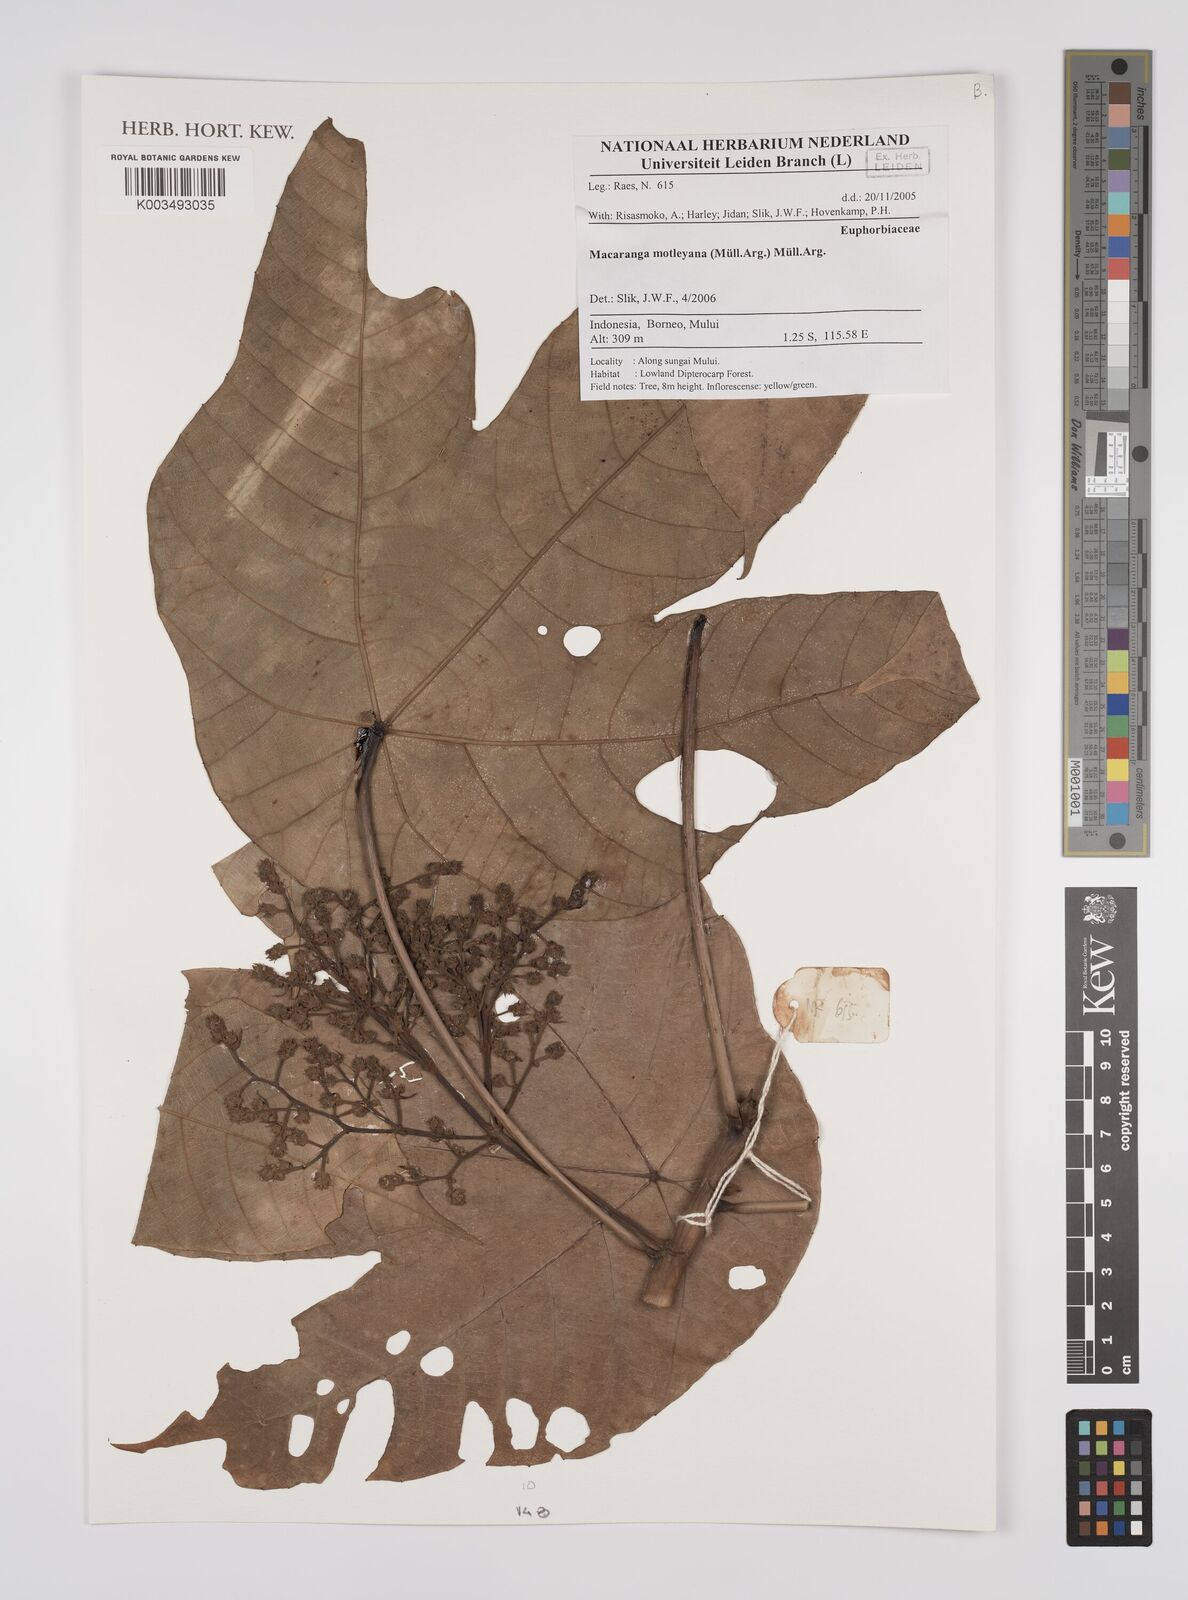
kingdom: Plantae
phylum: Tracheophyta
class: Magnoliopsida
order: Malpighiales
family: Euphorbiaceae
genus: Macaranga
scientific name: Macaranga motleyana
